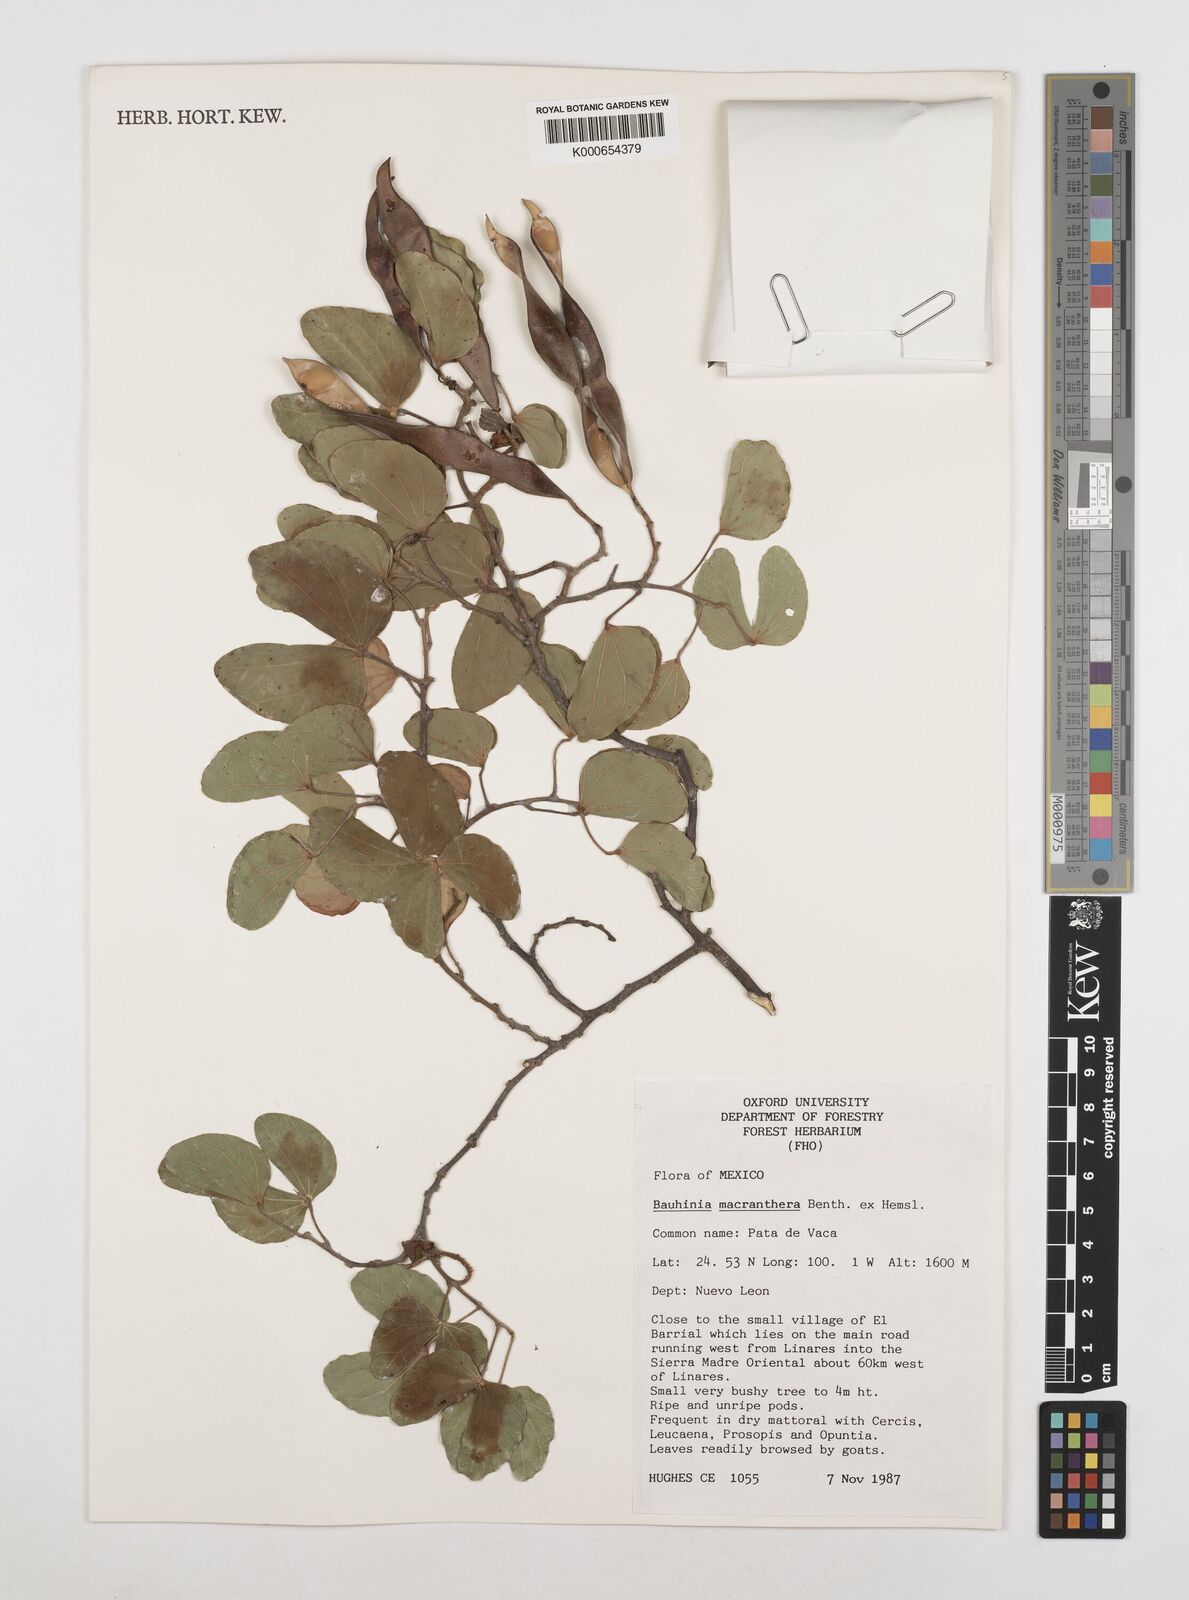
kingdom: Plantae
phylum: Tracheophyta
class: Magnoliopsida
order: Fabales
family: Fabaceae
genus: Bauhinia
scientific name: Bauhinia macranthera
